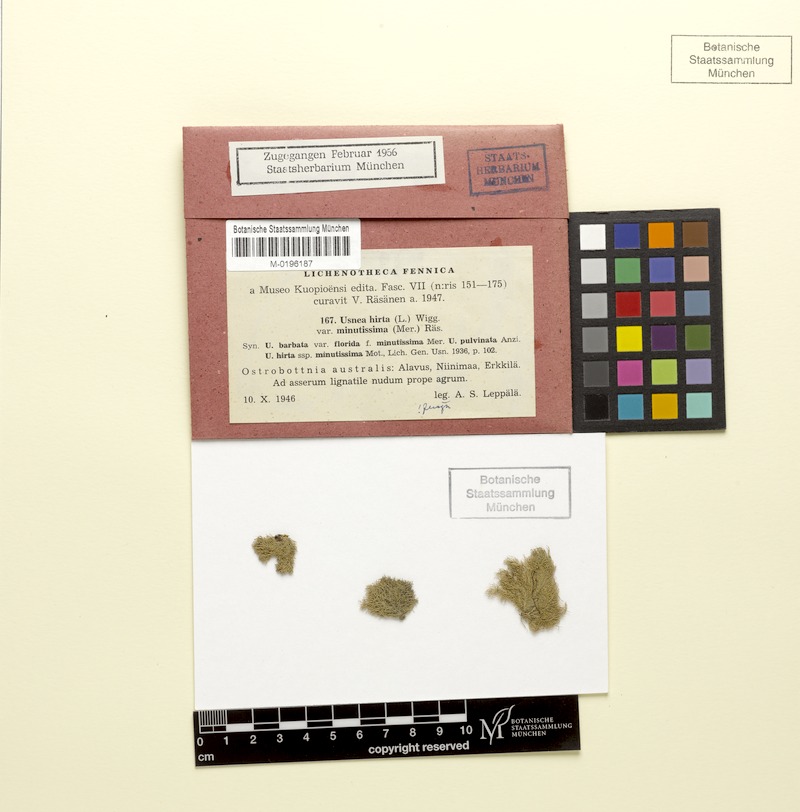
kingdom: Fungi
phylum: Ascomycota
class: Lecanoromycetes
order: Lecanorales
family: Parmeliaceae
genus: Usnea
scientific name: Usnea hirta
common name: Bristly beard lichen
